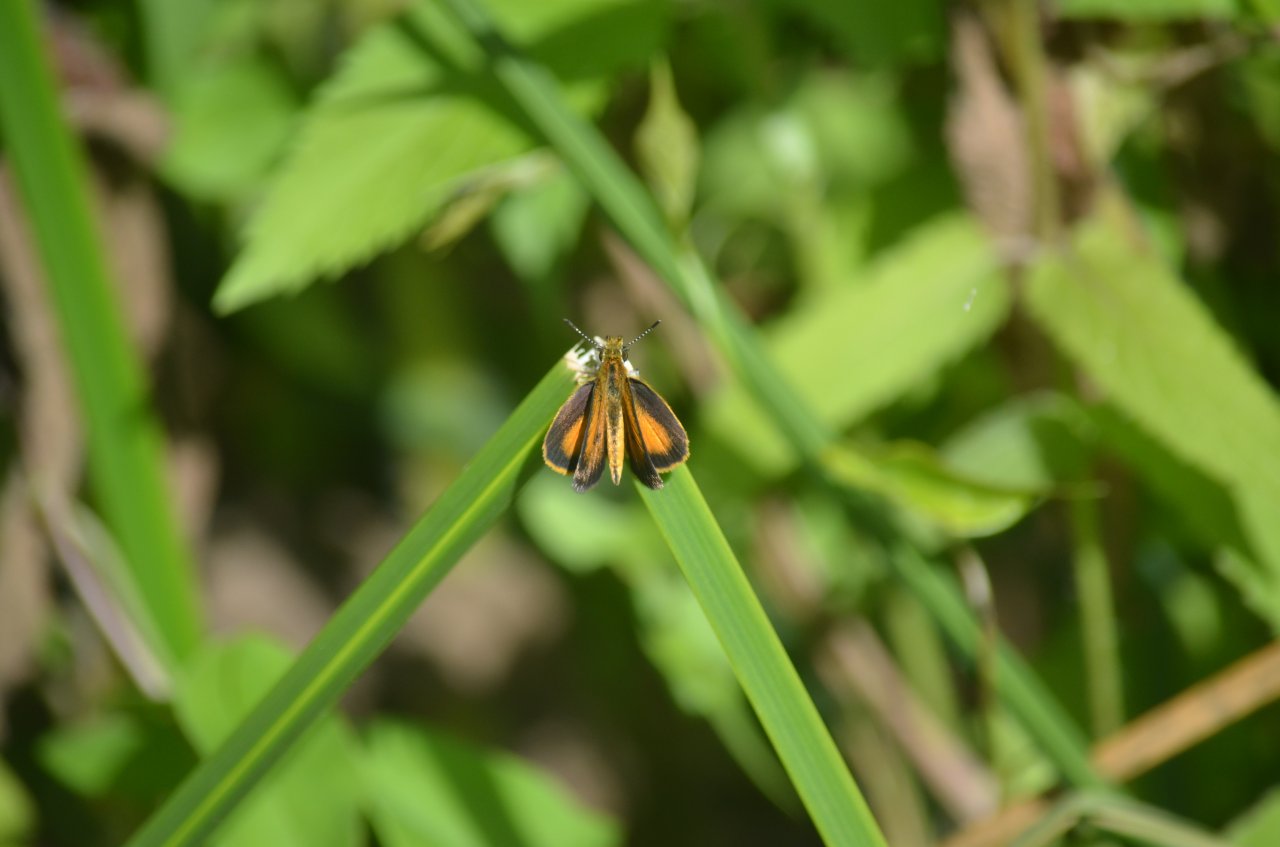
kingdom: Animalia
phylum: Arthropoda
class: Insecta
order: Lepidoptera
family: Hesperiidae
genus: Ancyloxypha
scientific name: Ancyloxypha numitor
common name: Least Skipper
